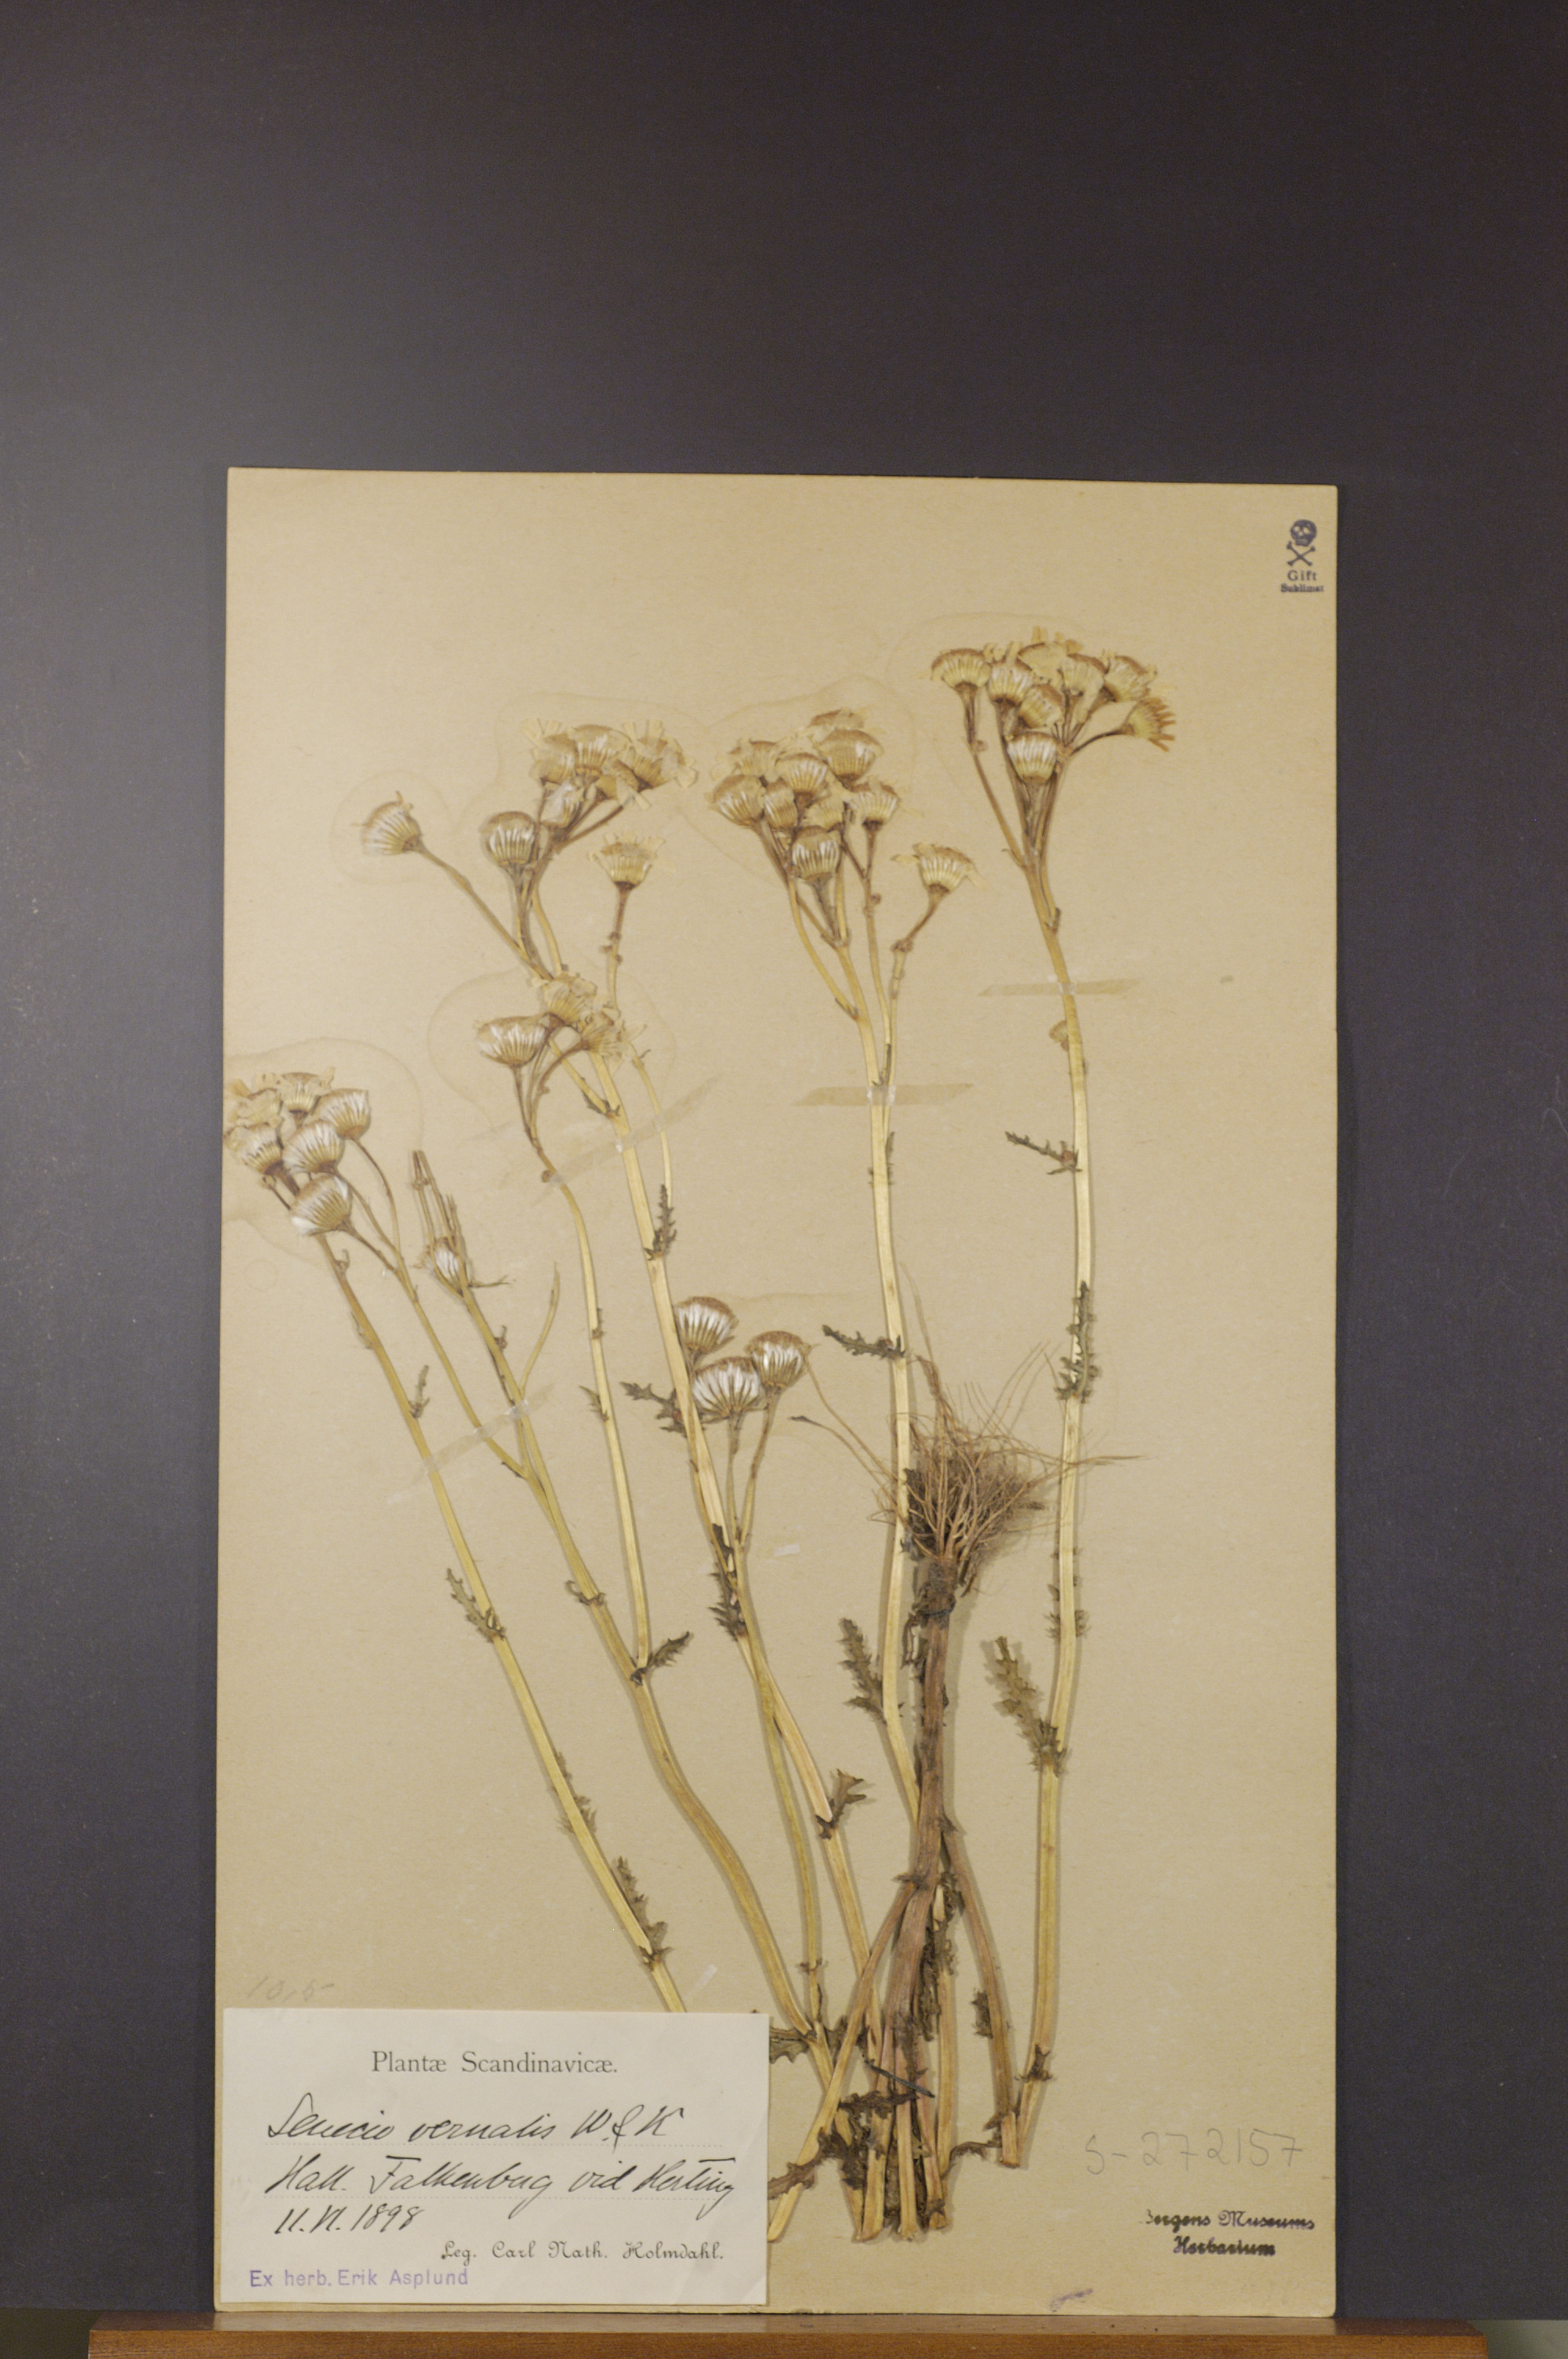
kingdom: Plantae
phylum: Tracheophyta
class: Magnoliopsida
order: Asterales
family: Asteraceae
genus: Senecio
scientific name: Senecio vernalis
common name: Eastern groundsel
